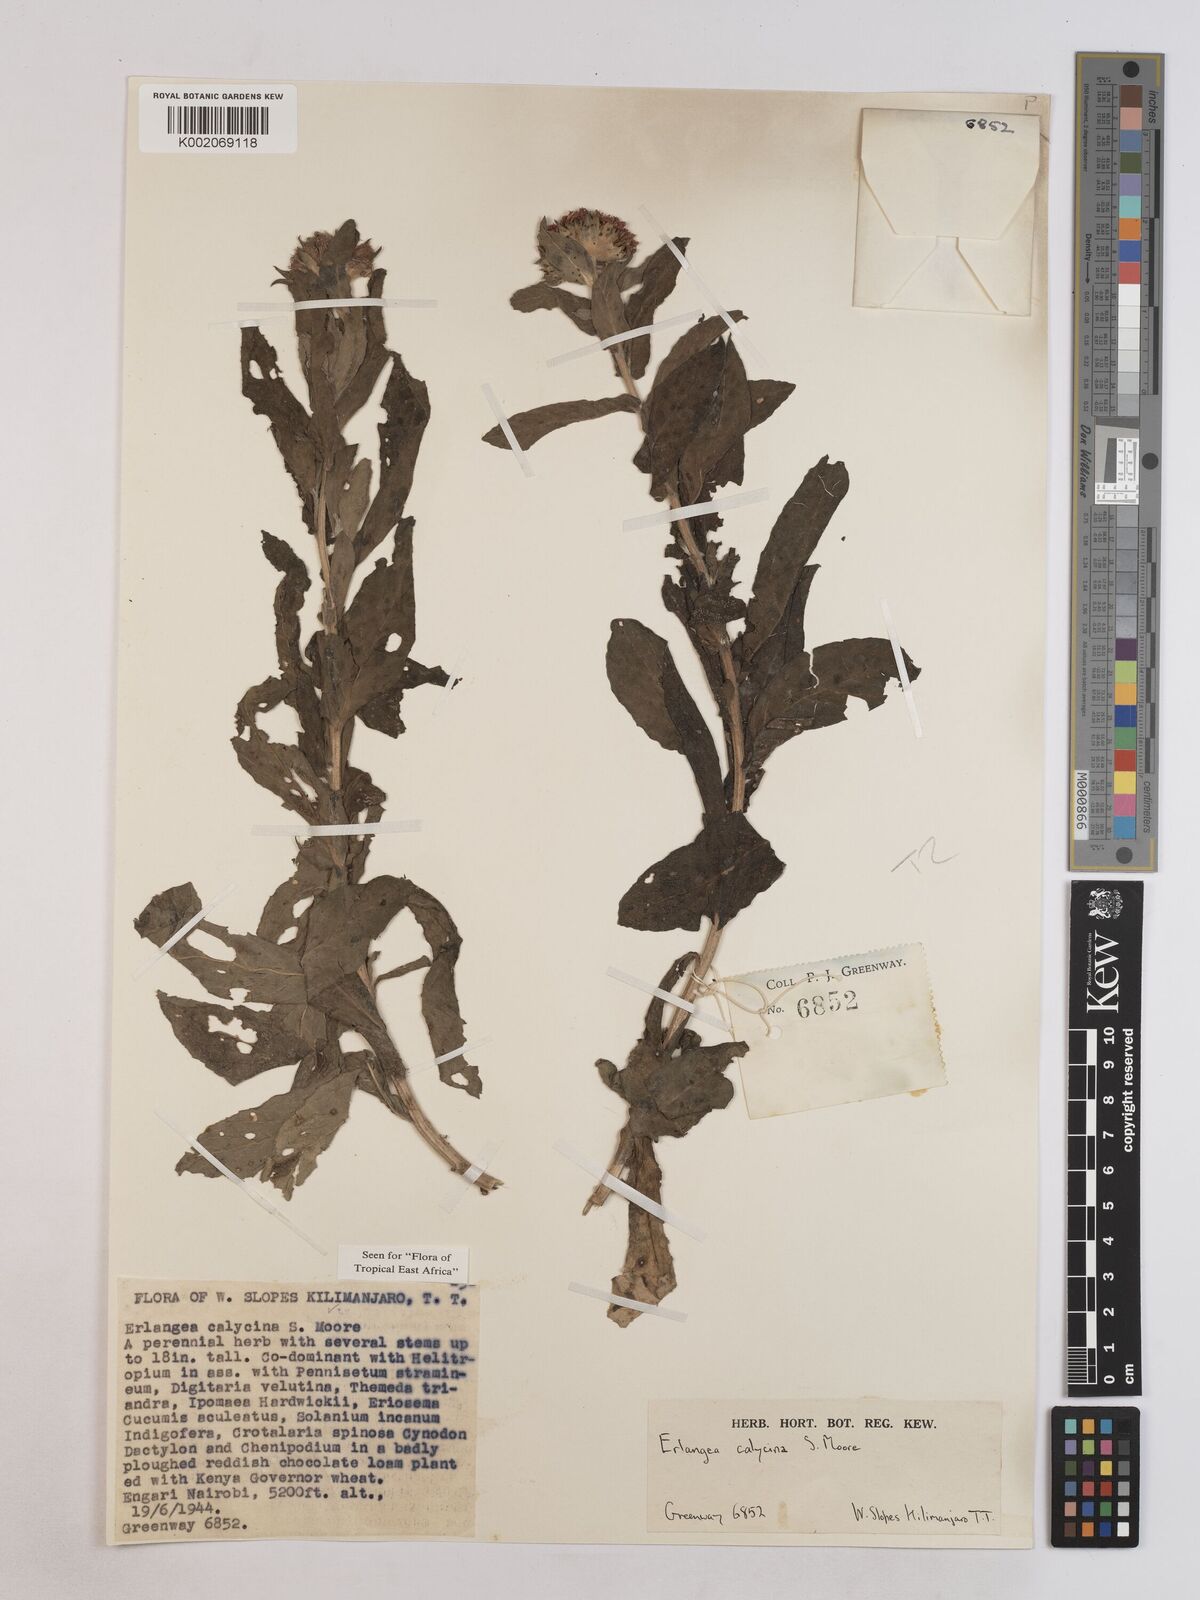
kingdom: Plantae
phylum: Tracheophyta
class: Magnoliopsida
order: Asterales
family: Asteraceae
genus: Erlangea
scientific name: Erlangea calycina
